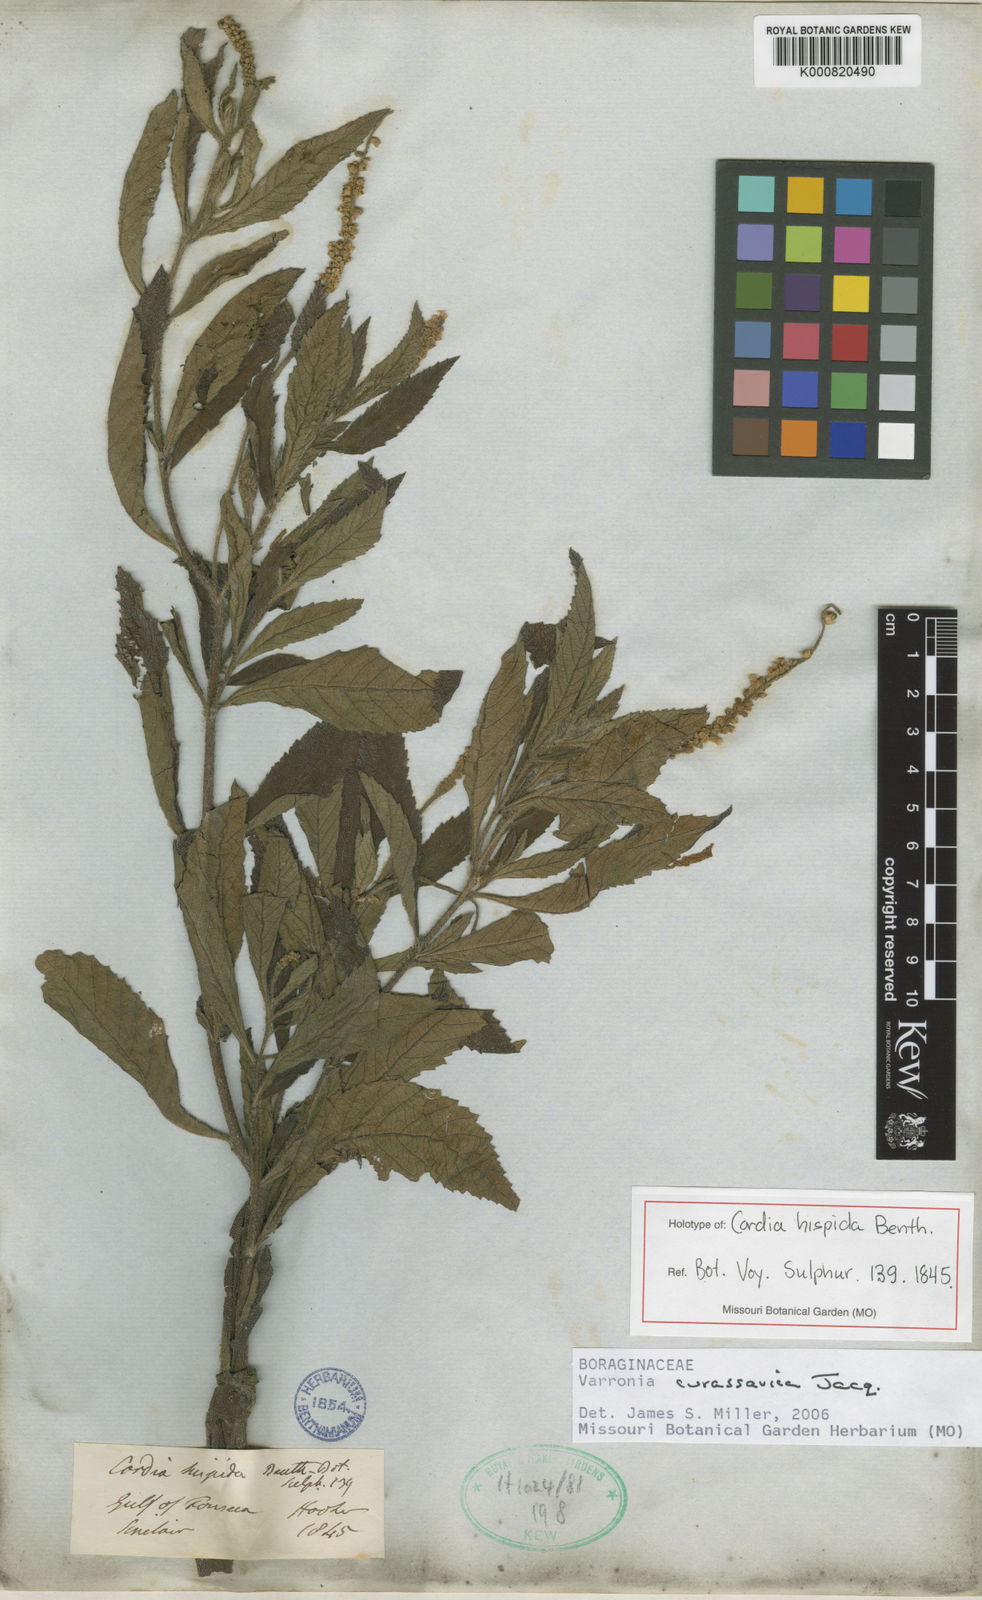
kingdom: Plantae
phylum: Tracheophyta
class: Magnoliopsida
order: Boraginales
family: Cordiaceae
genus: Varronia
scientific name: Varronia curassavica
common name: Black sage
